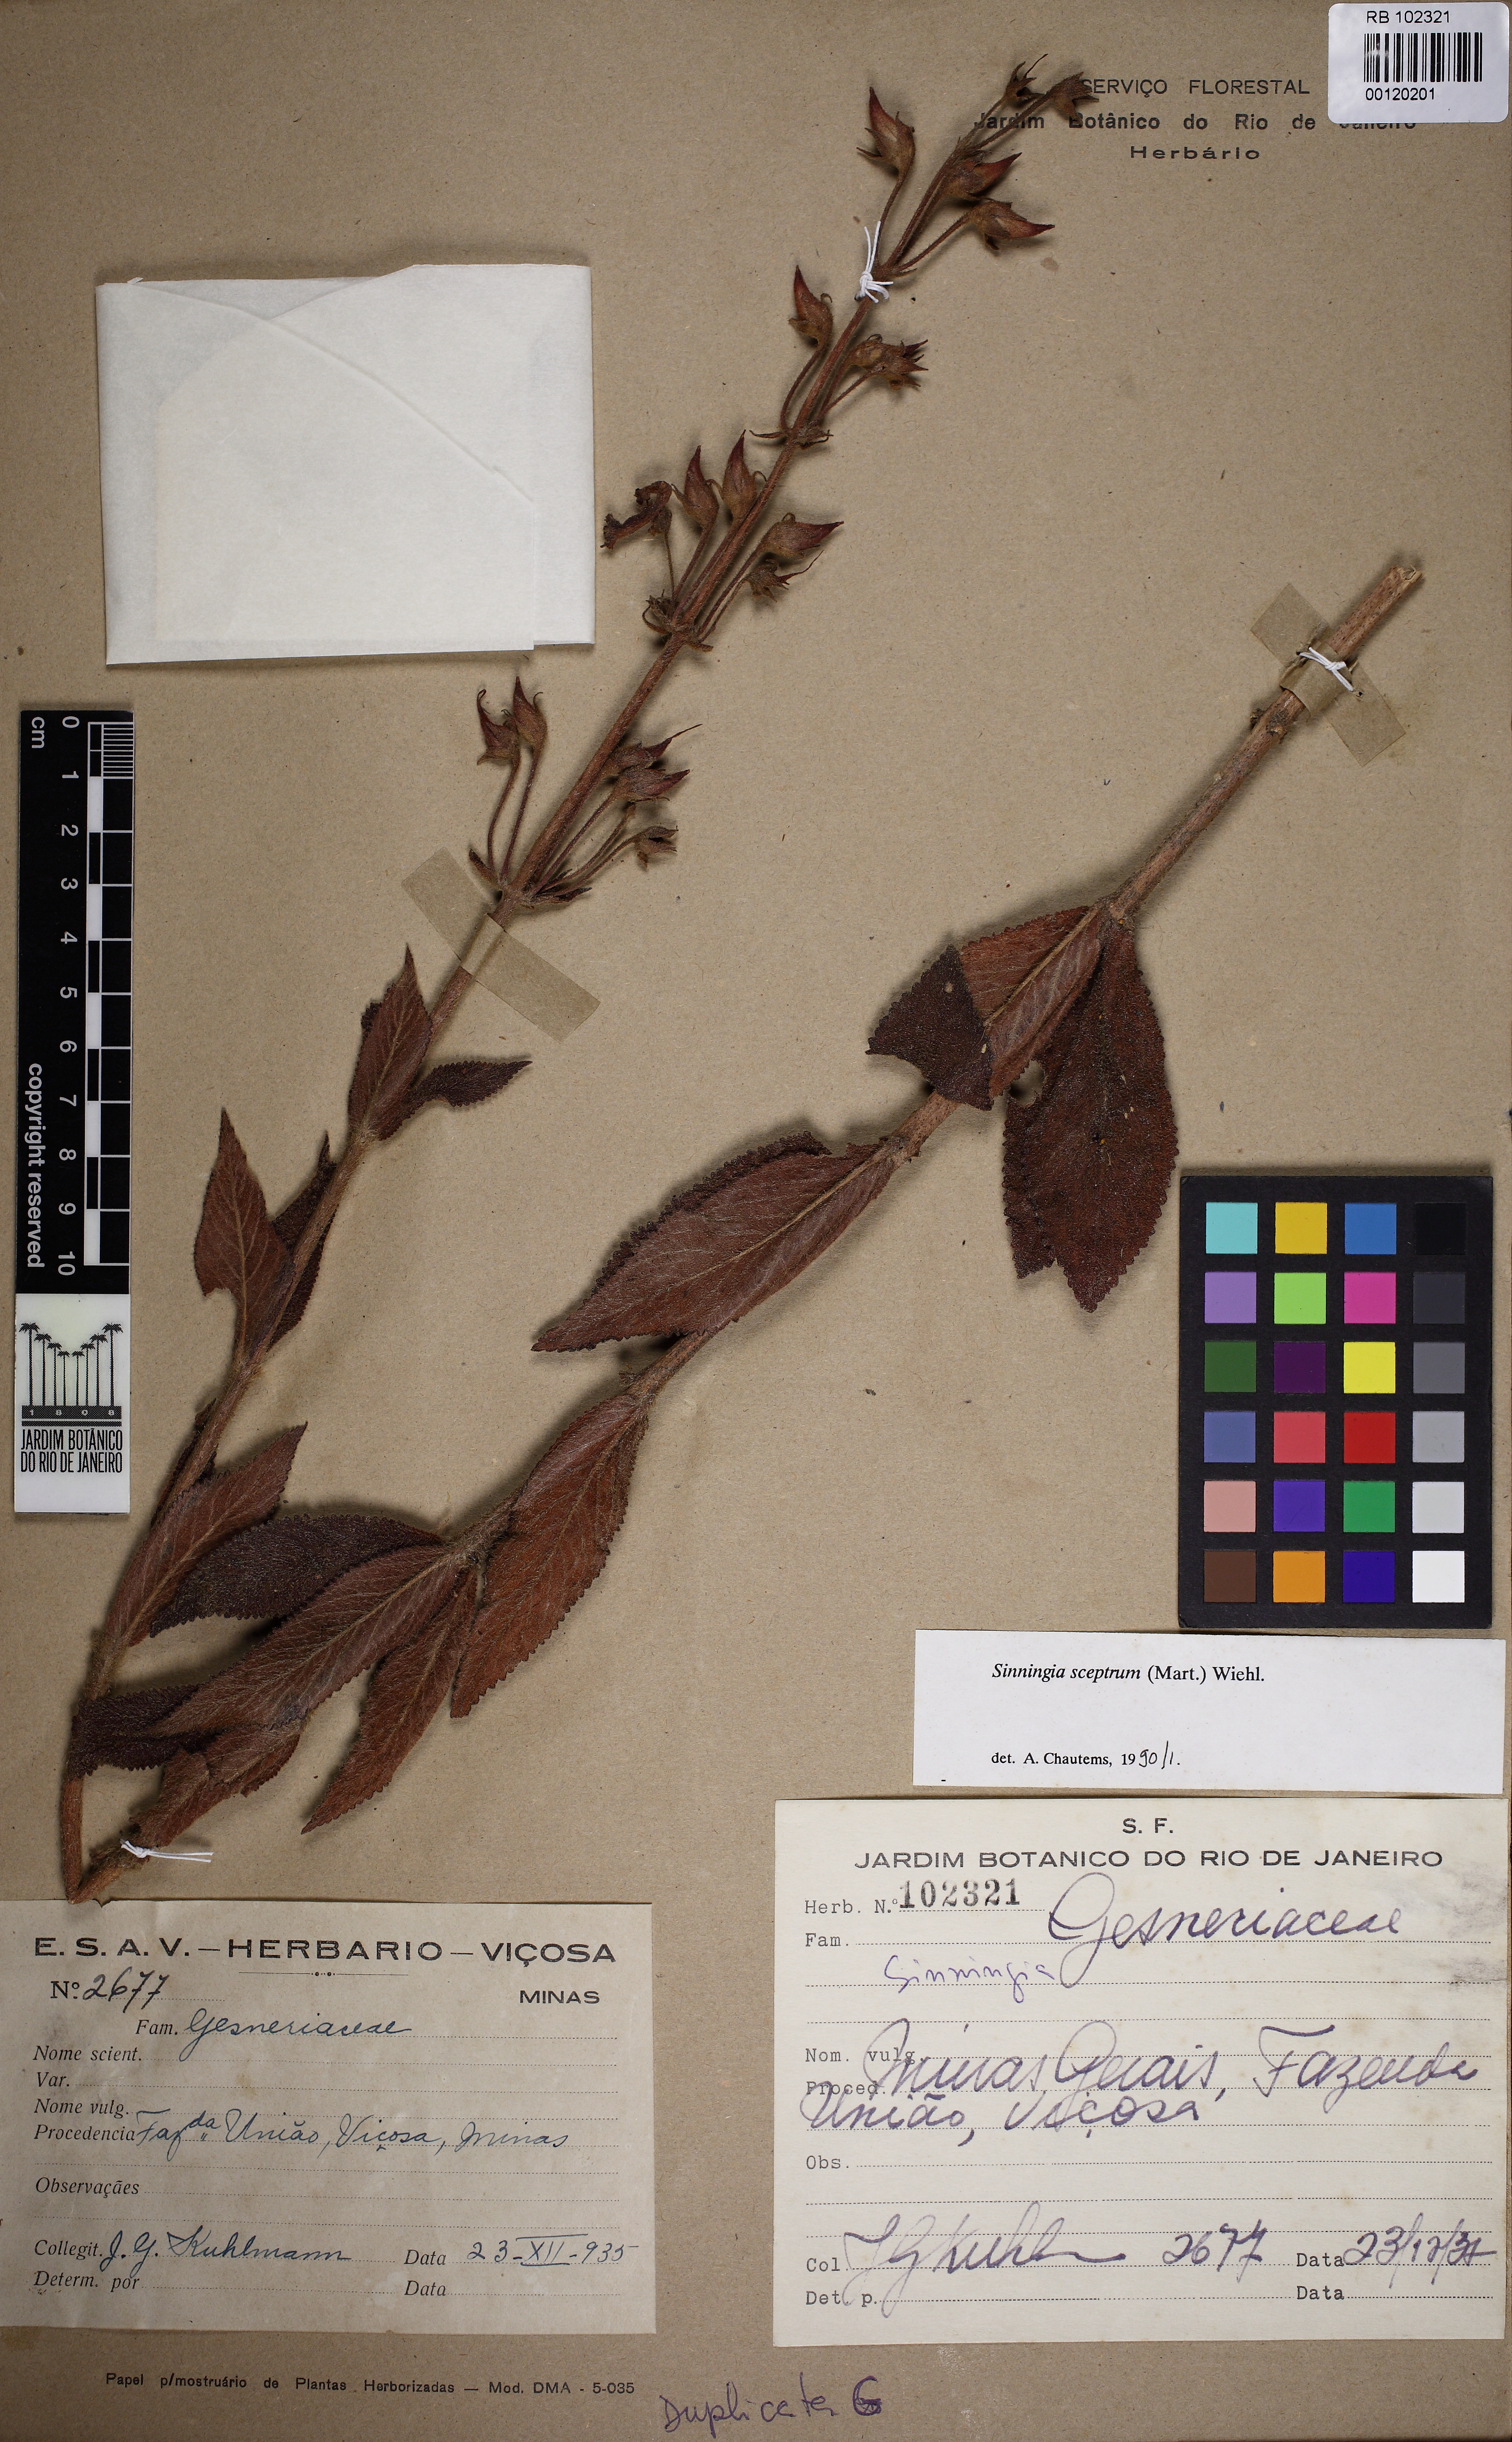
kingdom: Plantae
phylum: Tracheophyta
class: Magnoliopsida
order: Lamiales
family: Gesneriaceae
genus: Sinningia
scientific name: Sinningia sceptrum
